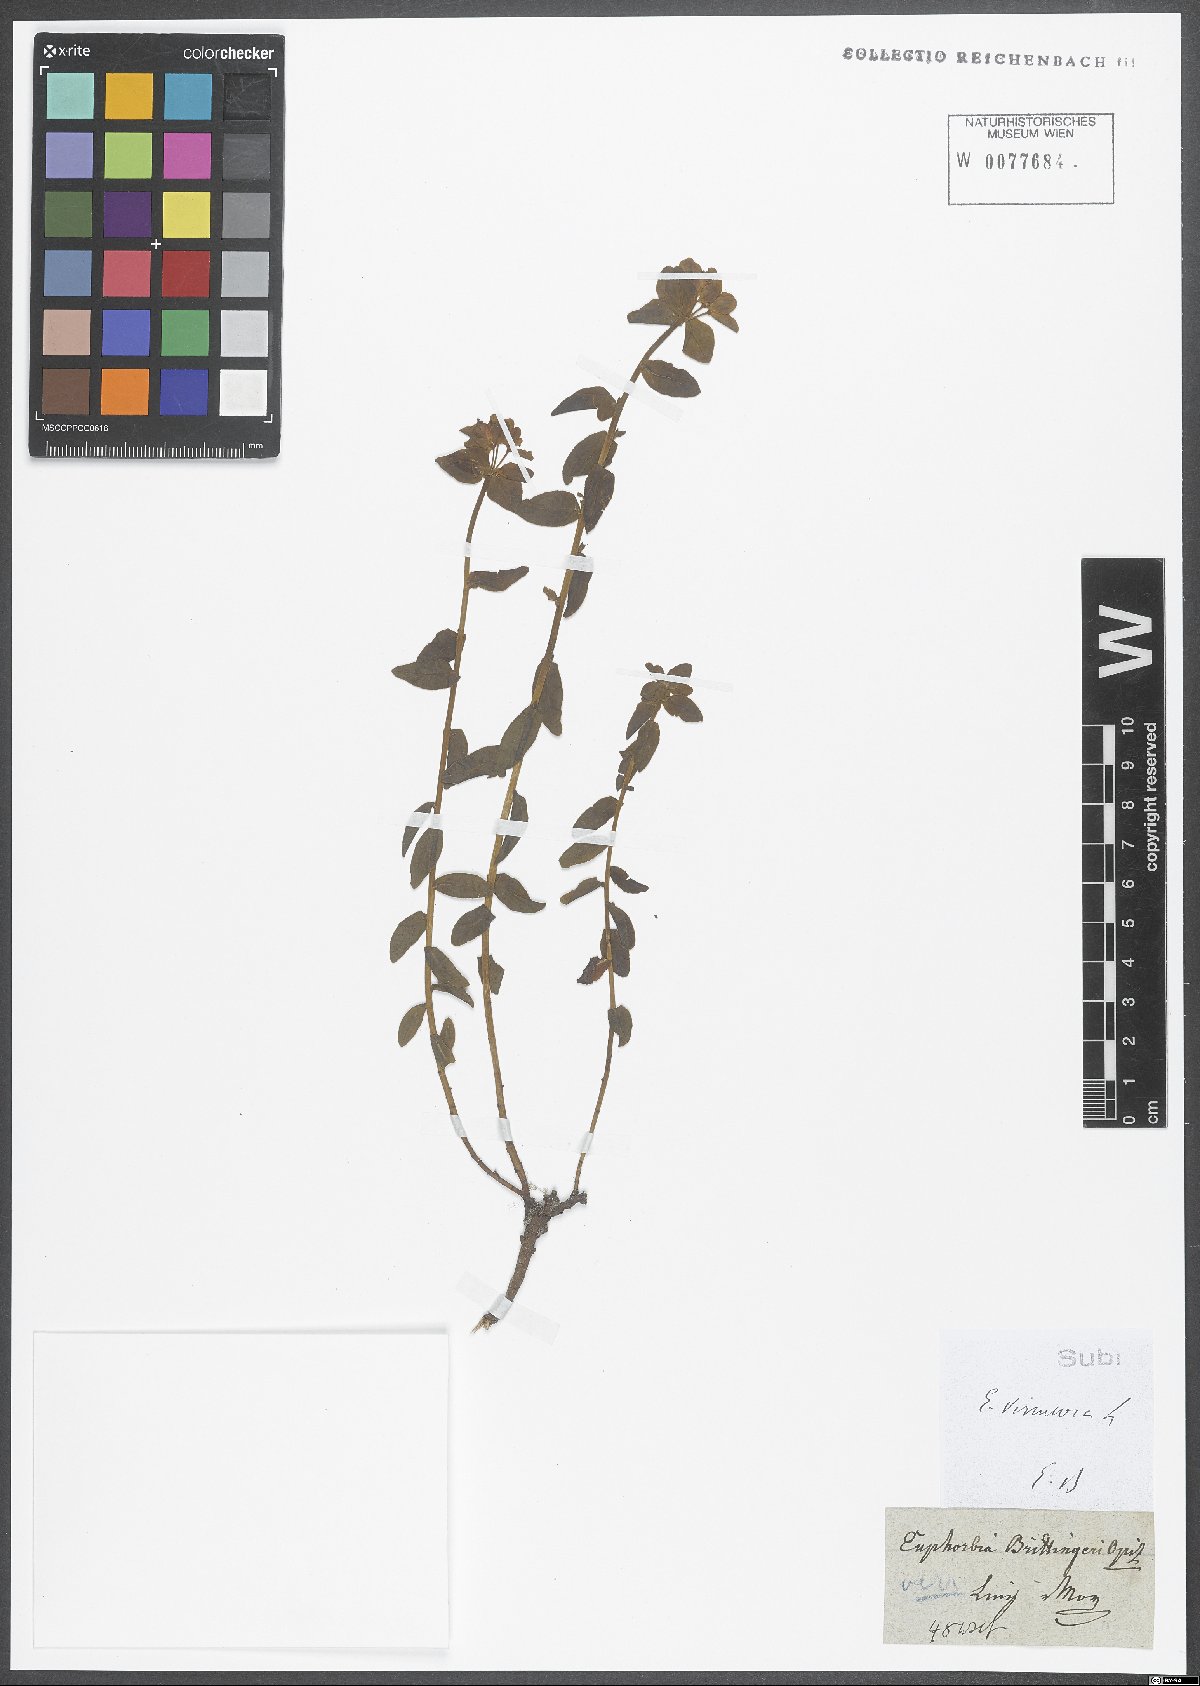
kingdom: Plantae
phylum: Tracheophyta
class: Magnoliopsida
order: Malpighiales
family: Euphorbiaceae
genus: Euphorbia
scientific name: Euphorbia verrucosa
